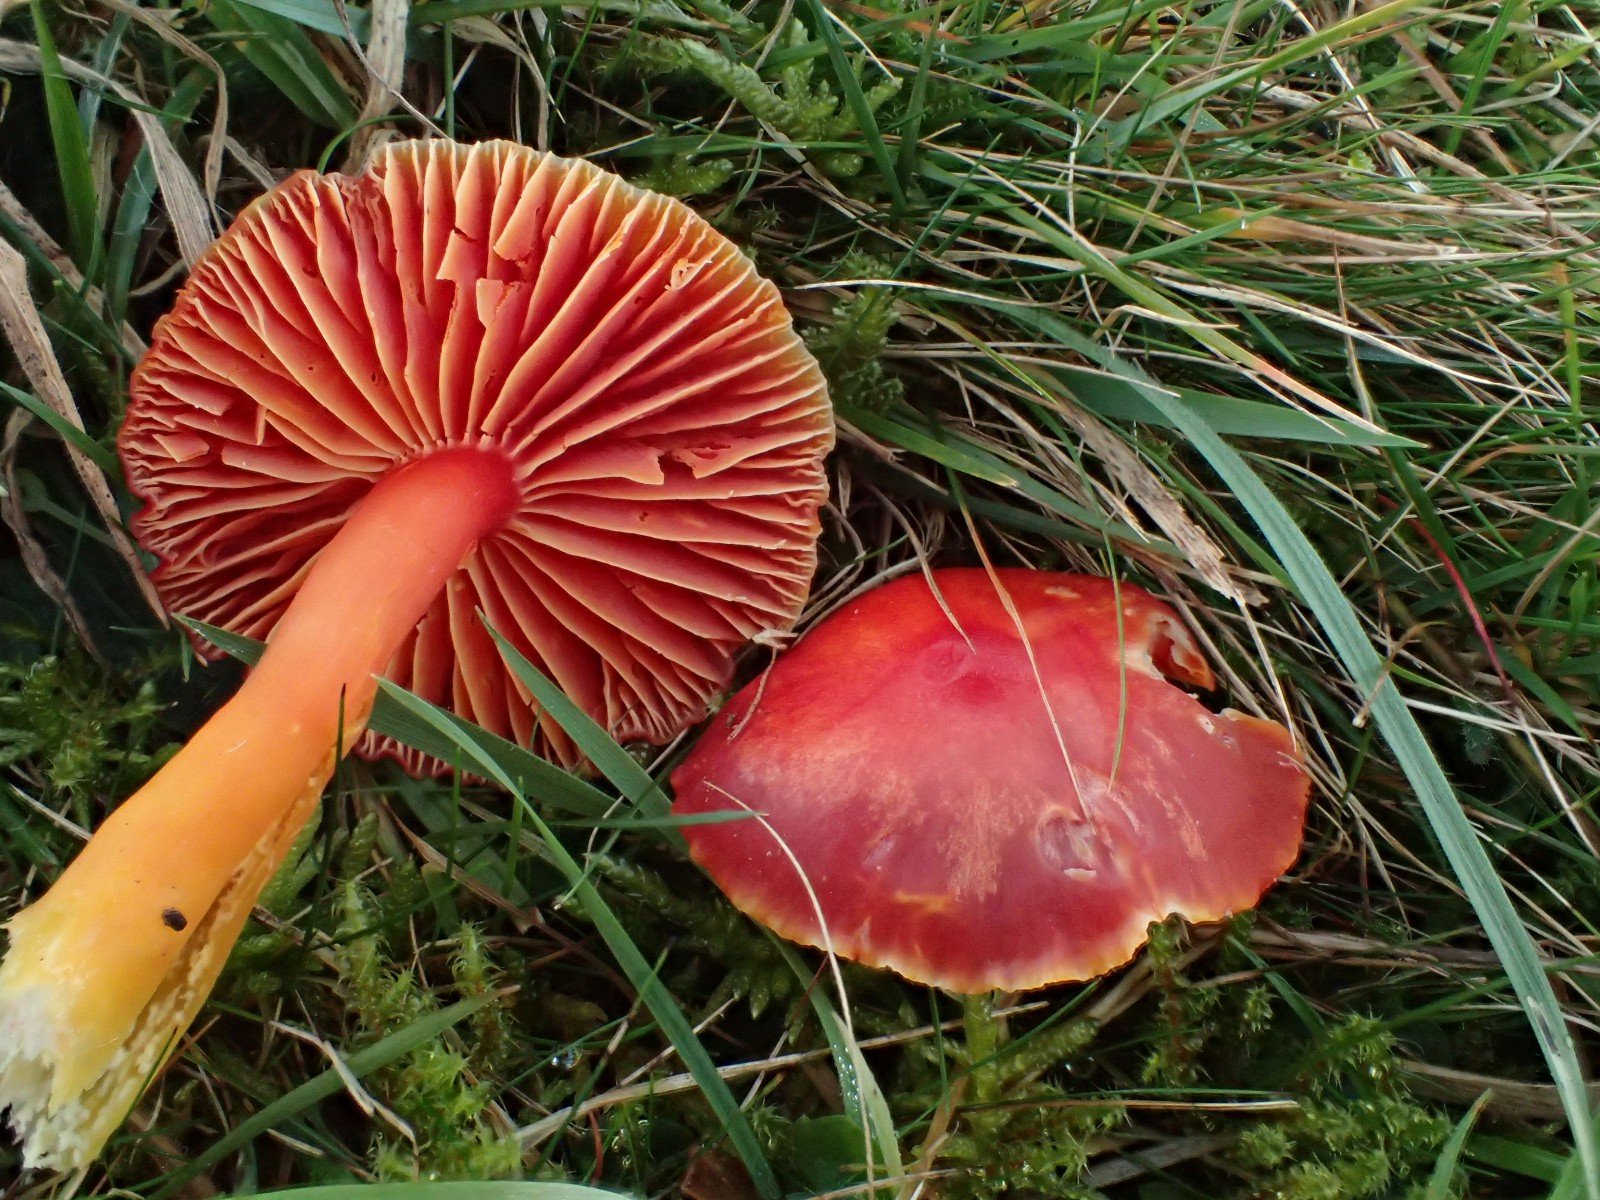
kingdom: Fungi
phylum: Basidiomycota
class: Agaricomycetes
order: Agaricales
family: Hygrophoraceae
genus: Hygrocybe
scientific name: Hygrocybe coccinea
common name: cinnober-vokshat
